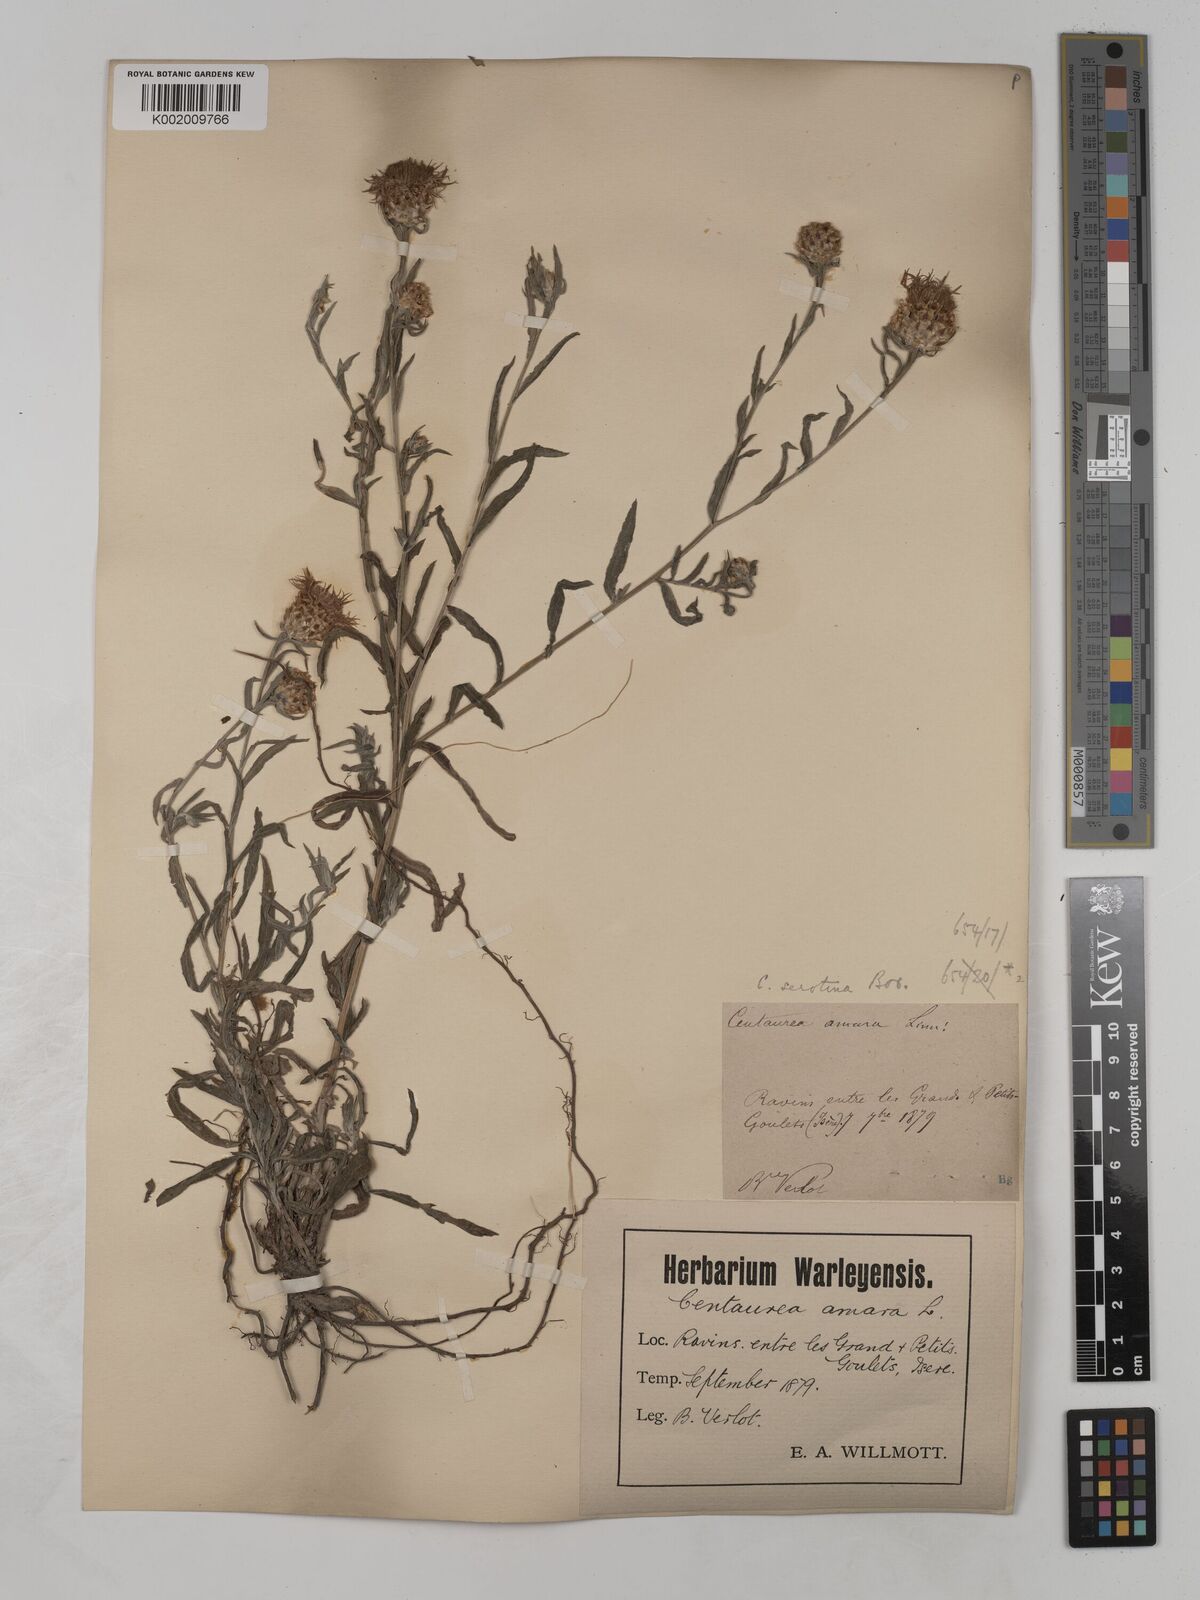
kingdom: Plantae
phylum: Tracheophyta
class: Magnoliopsida
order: Asterales
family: Asteraceae
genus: Centaurea
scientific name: Centaurea timbalii
